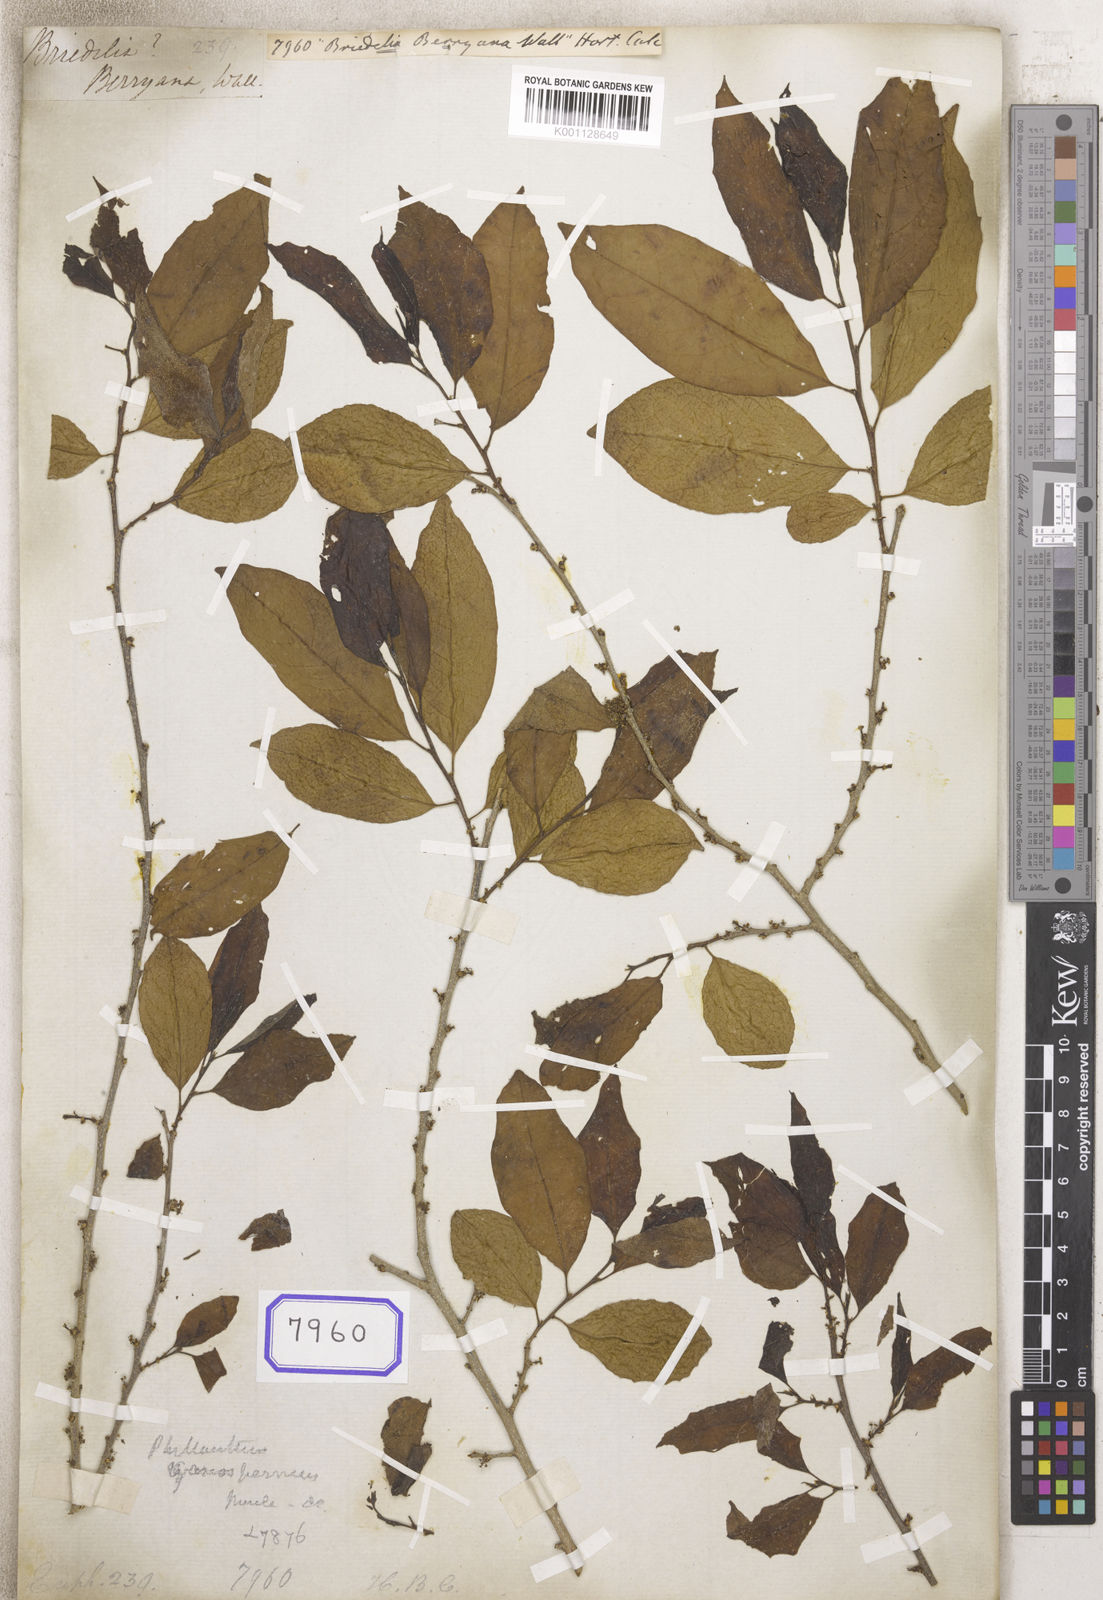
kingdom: Plantae
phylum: Tracheophyta
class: Magnoliopsida
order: Malpighiales
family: Euphorbiaceae
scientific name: Euphorbiaceae
